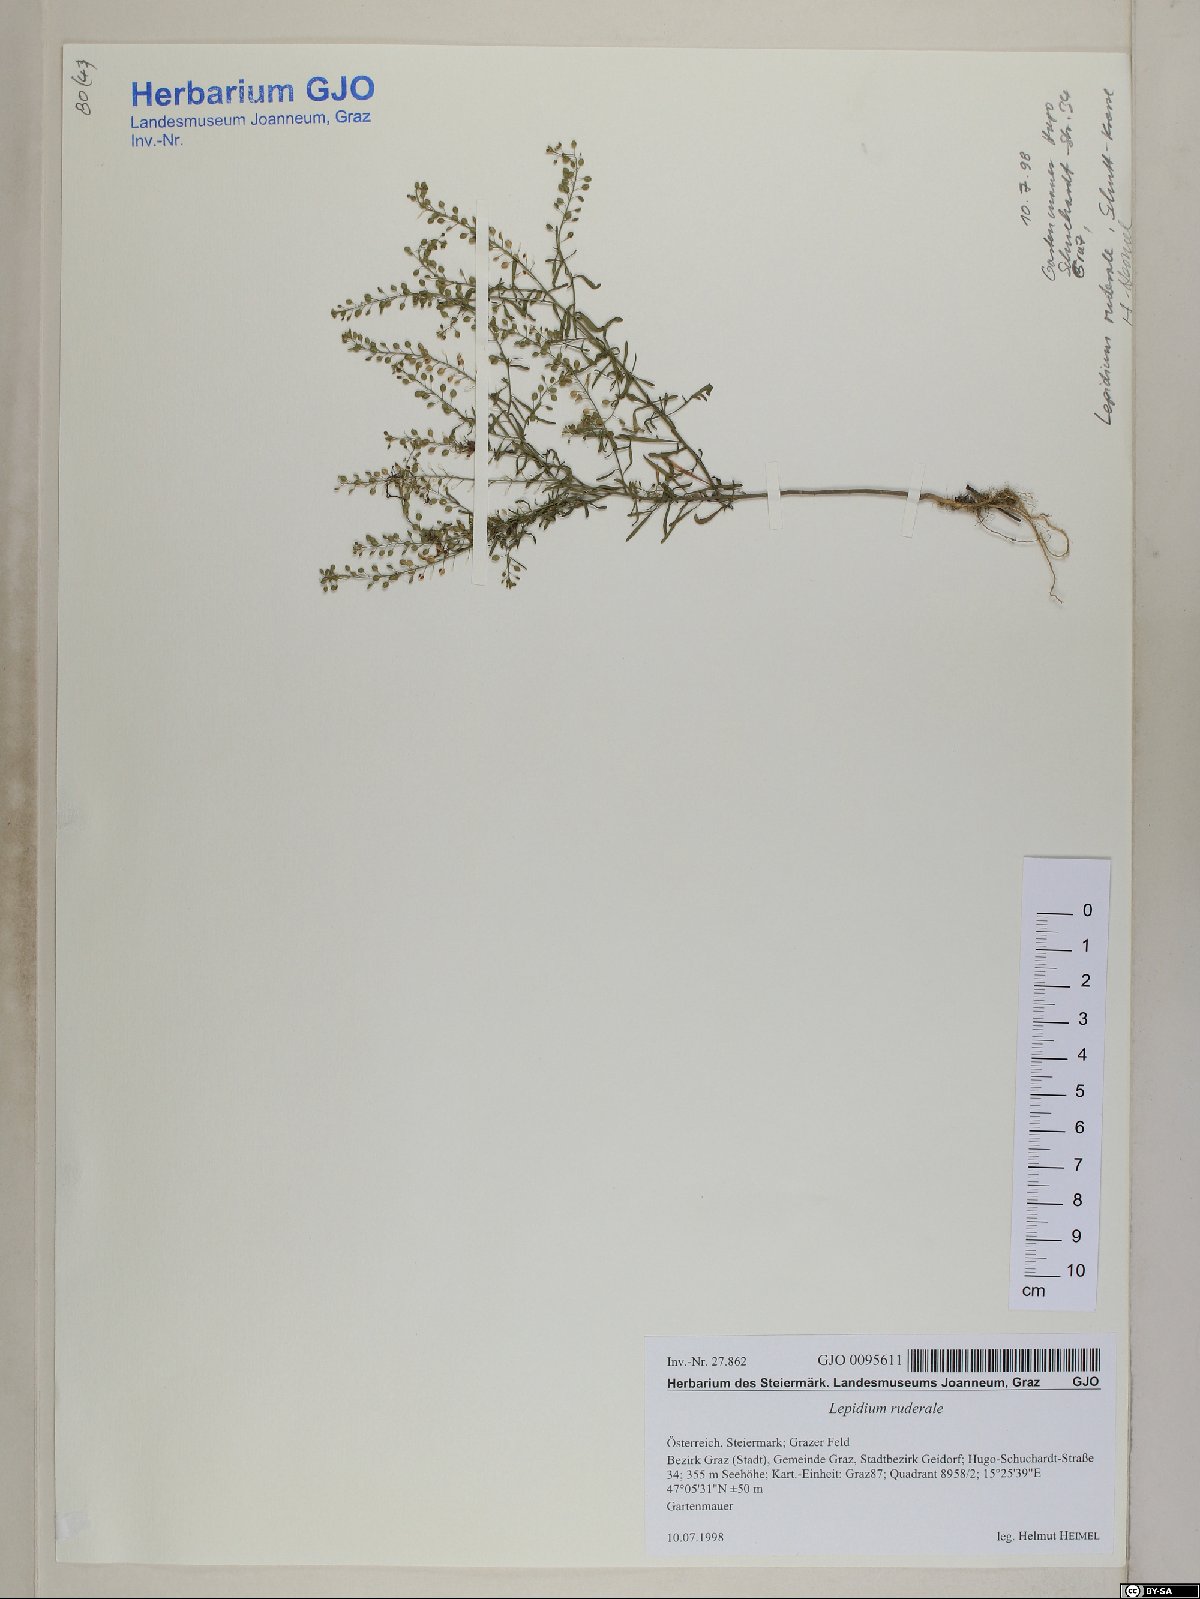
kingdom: Plantae
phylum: Tracheophyta
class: Magnoliopsida
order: Brassicales
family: Brassicaceae
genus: Lepidium
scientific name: Lepidium ruderale
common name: Narrow-leaved pepperwort
